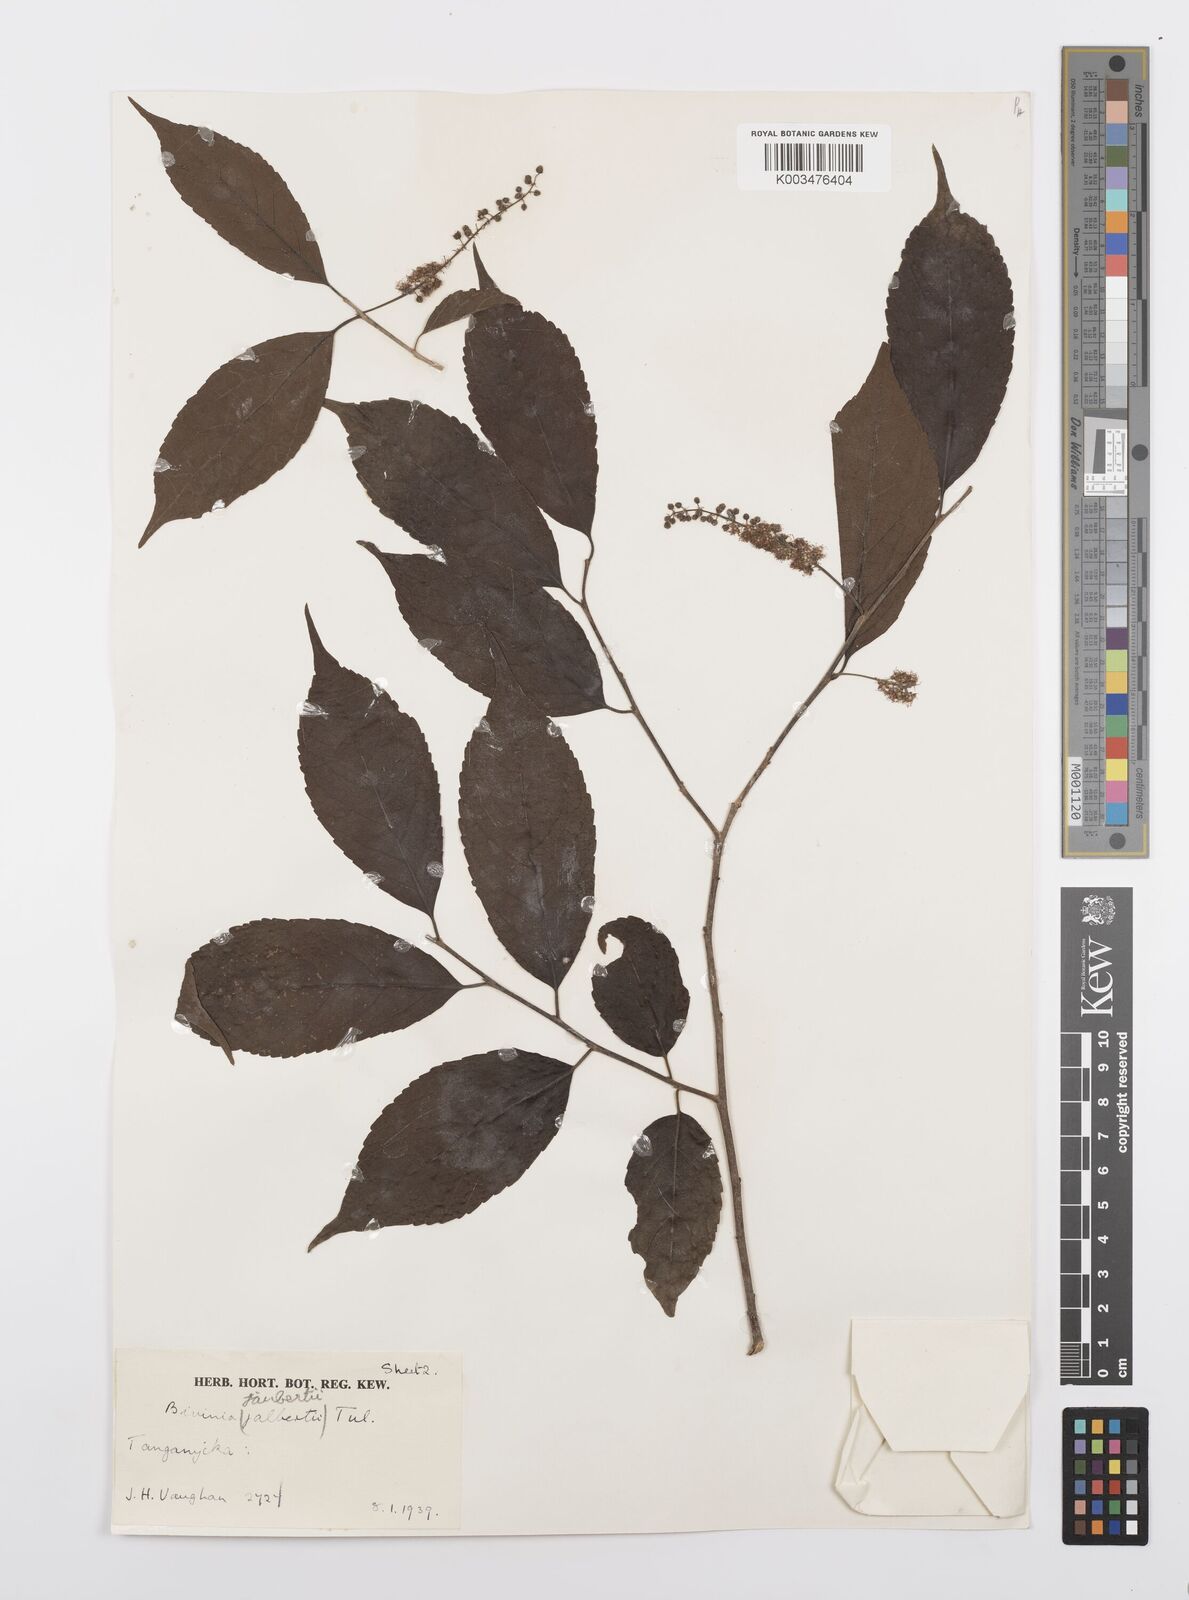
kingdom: Plantae
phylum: Tracheophyta
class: Magnoliopsida
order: Malpighiales
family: Salicaceae
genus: Bivinia
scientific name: Bivinia jalbertii
